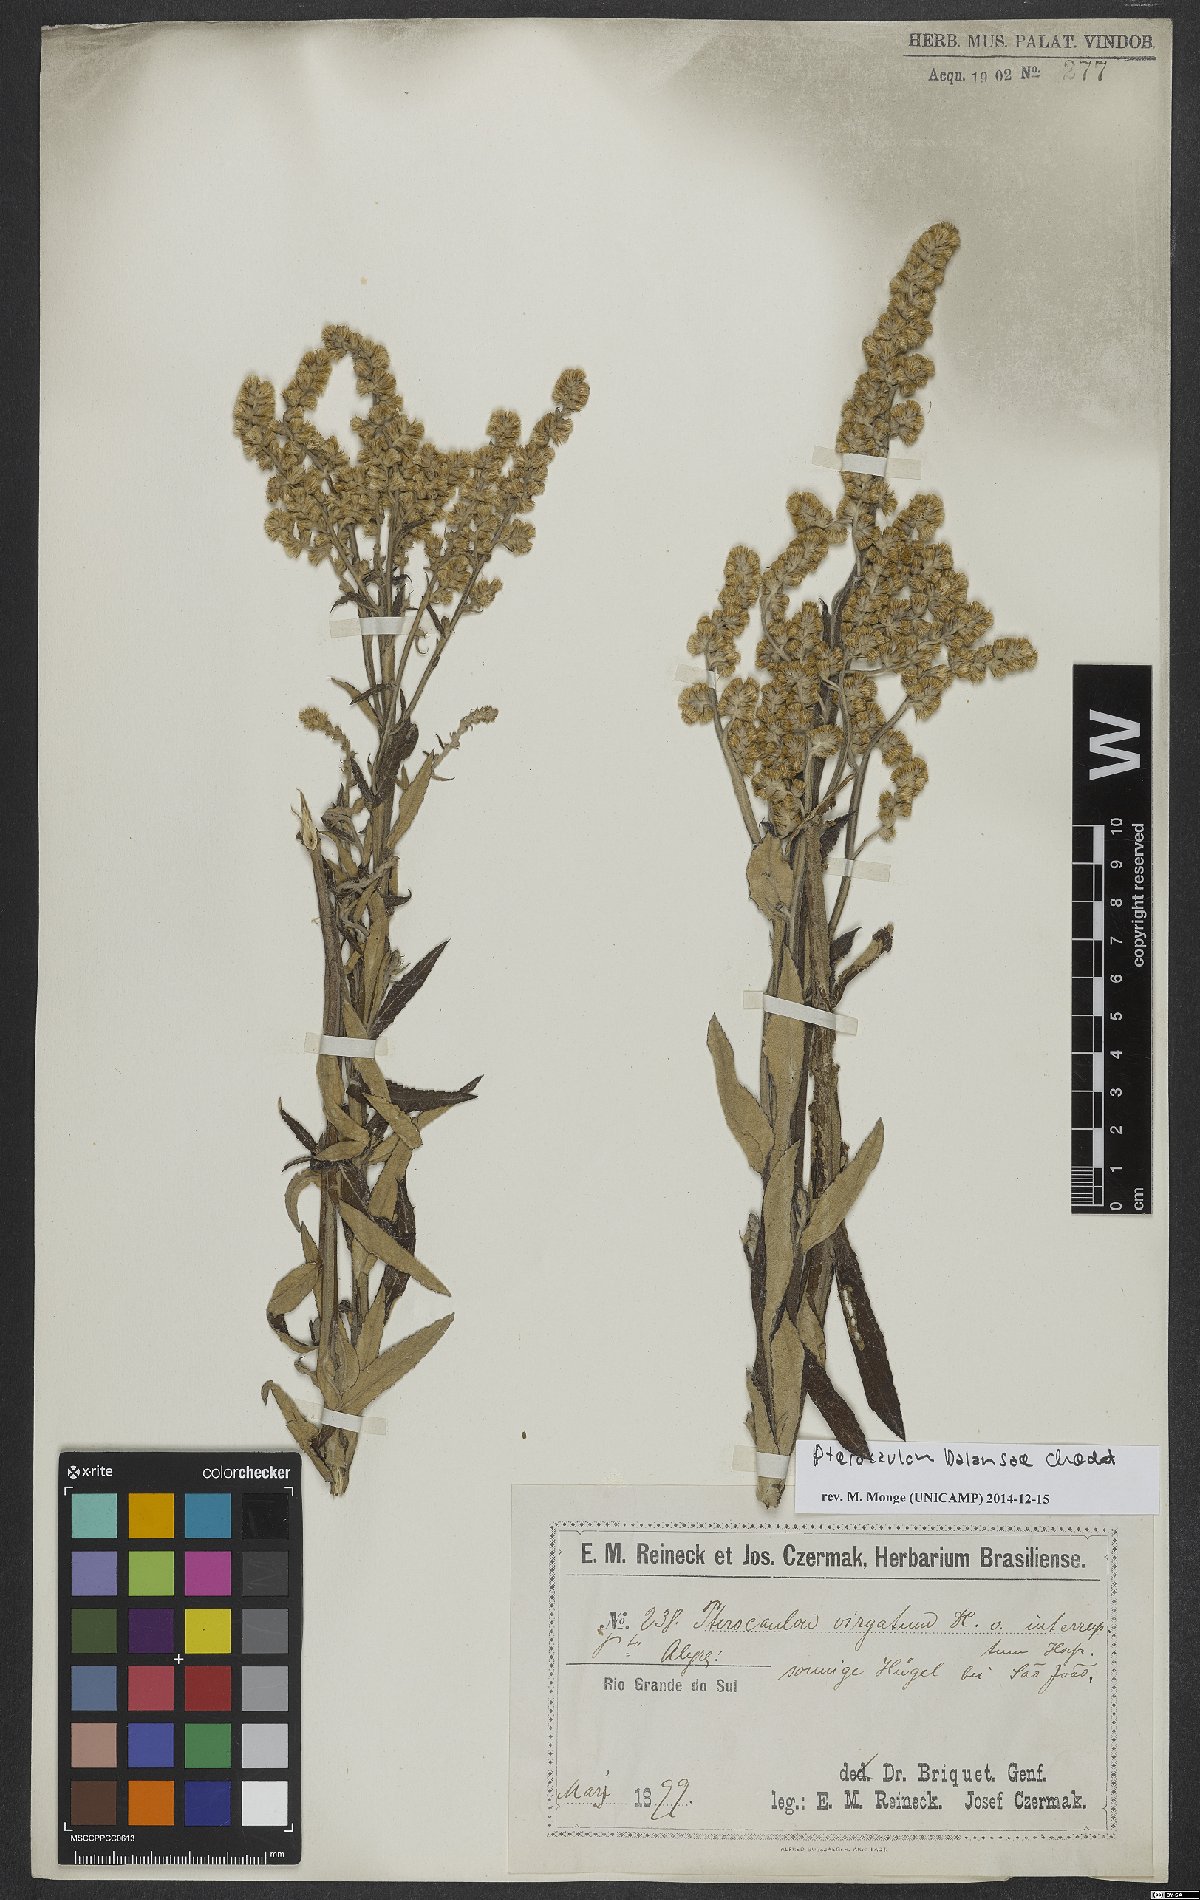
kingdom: Plantae
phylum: Tracheophyta
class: Magnoliopsida
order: Asterales
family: Asteraceae
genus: Pterocaulon
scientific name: Pterocaulon balansae
